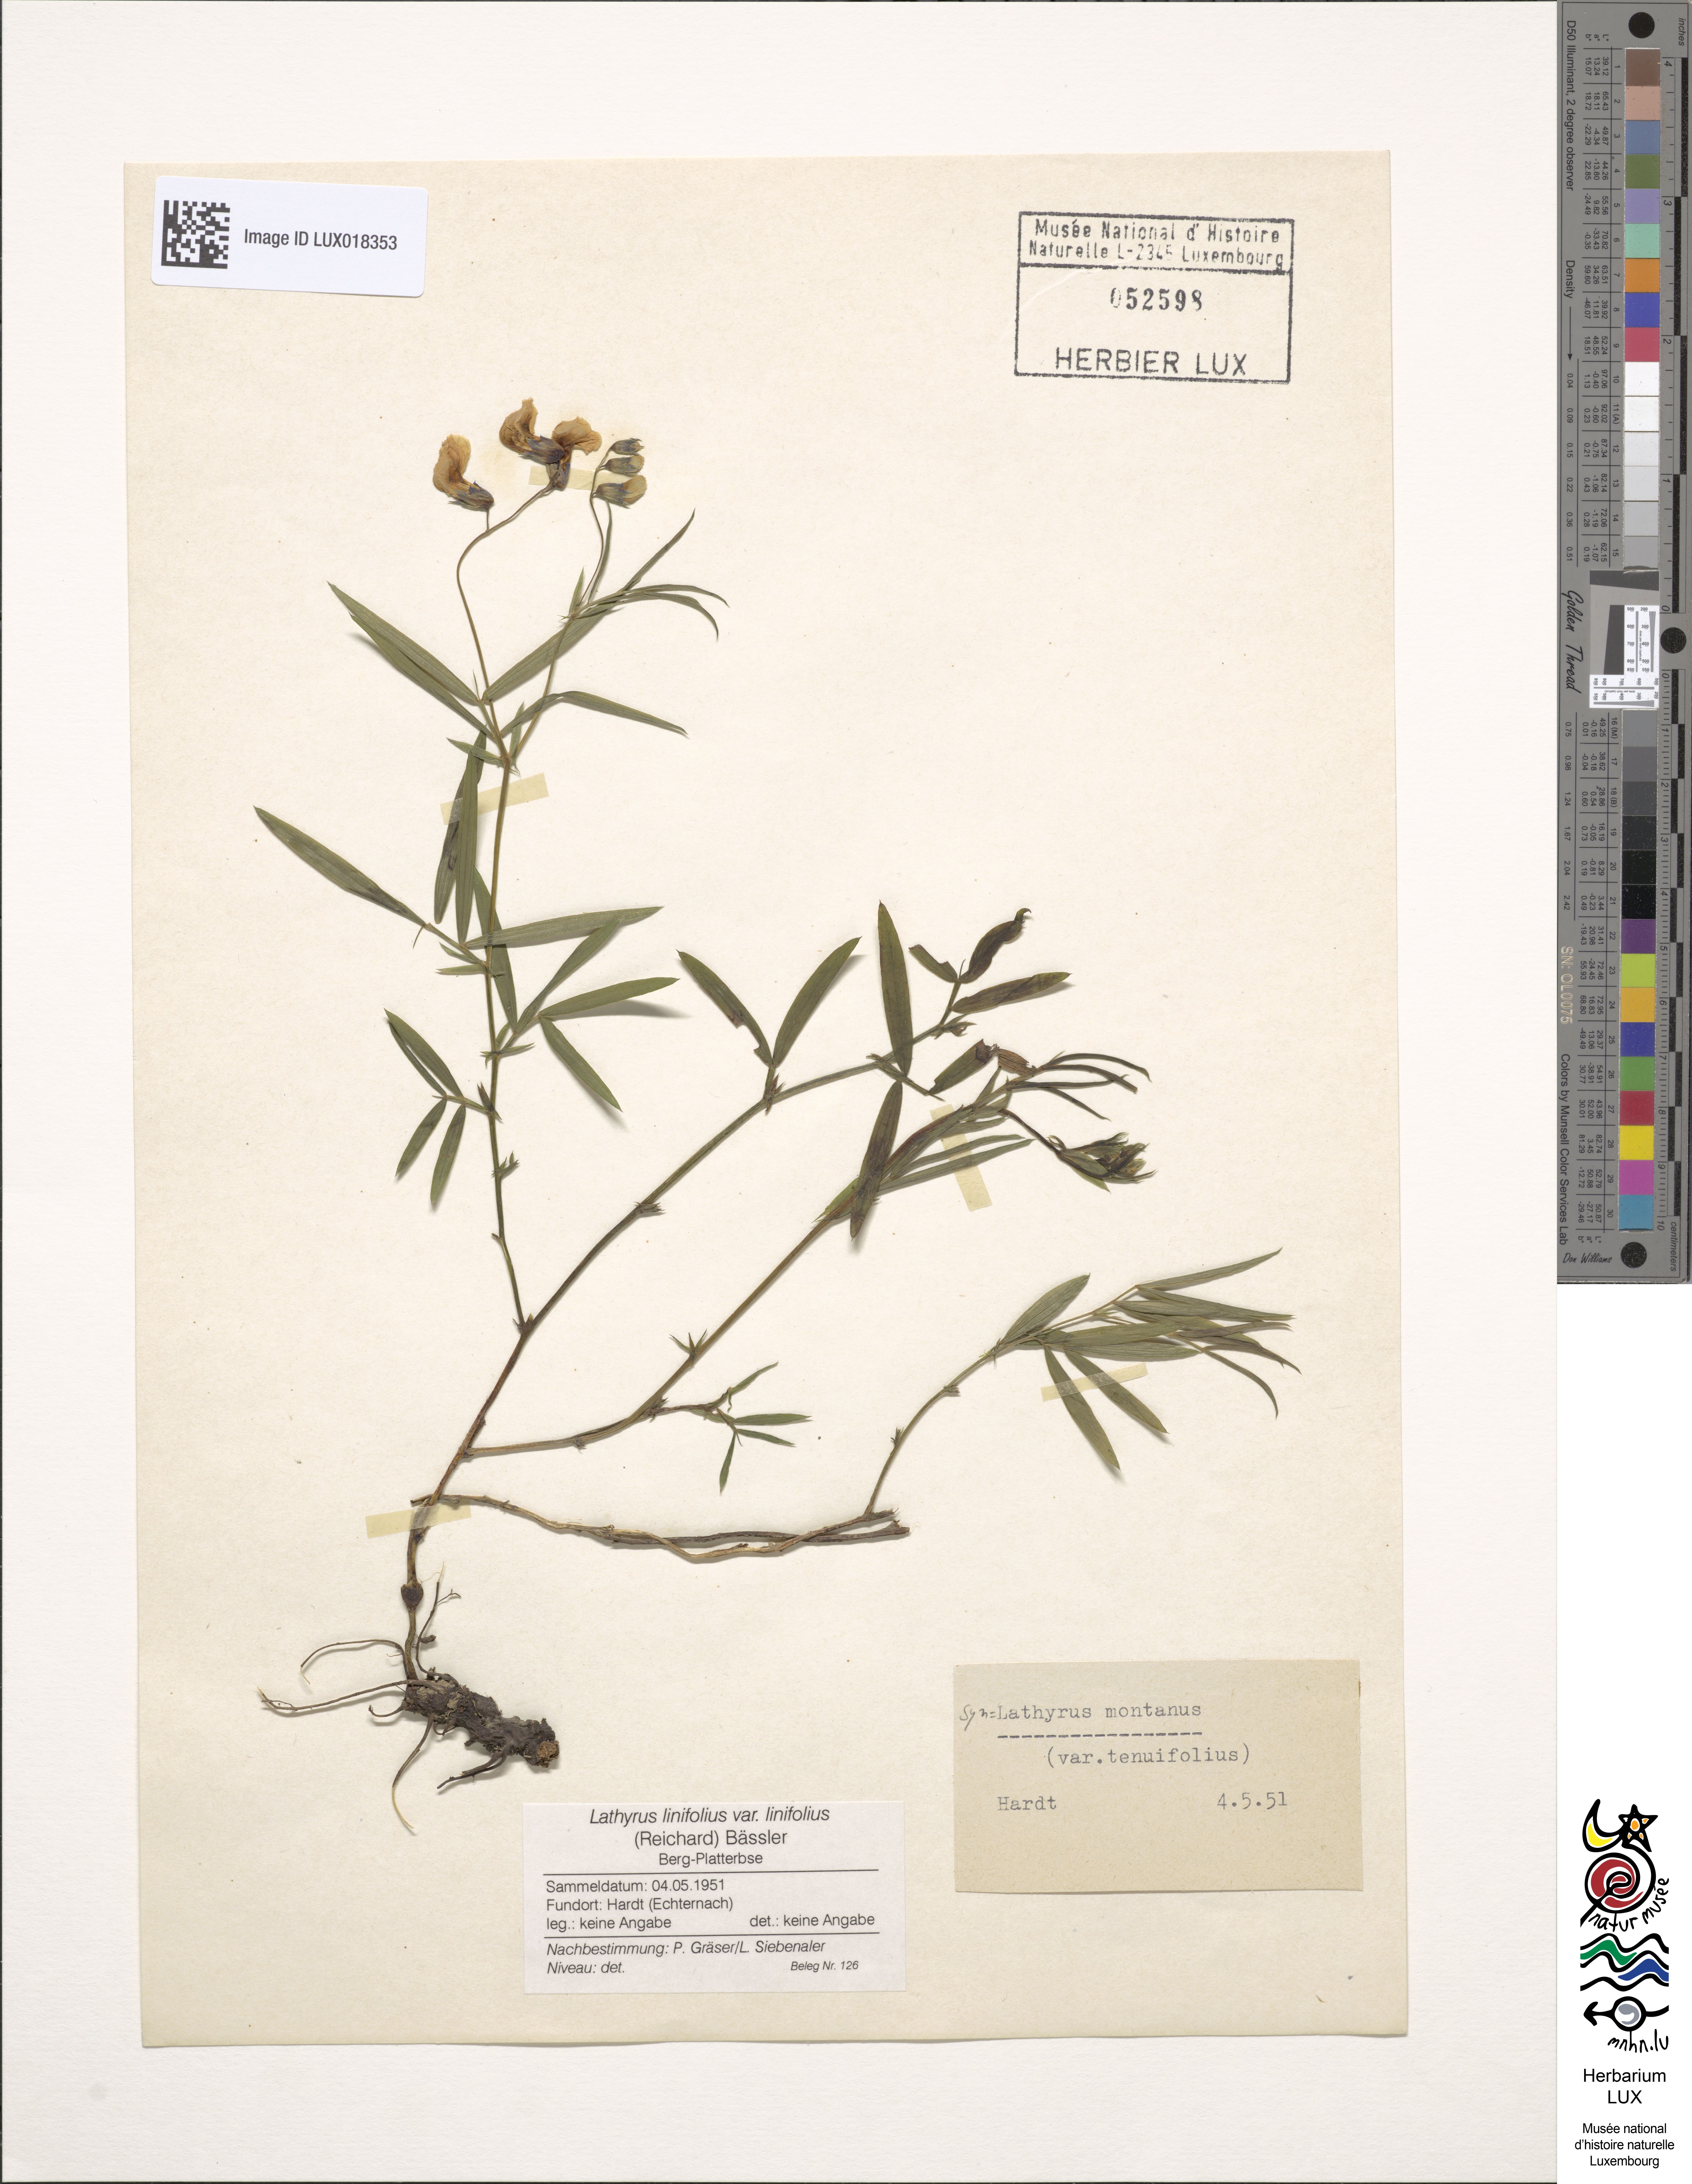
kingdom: Plantae
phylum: Tracheophyta
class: Magnoliopsida
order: Fabales
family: Fabaceae
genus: Lathyrus
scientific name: Lathyrus linifolius
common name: Bitter-vetch
